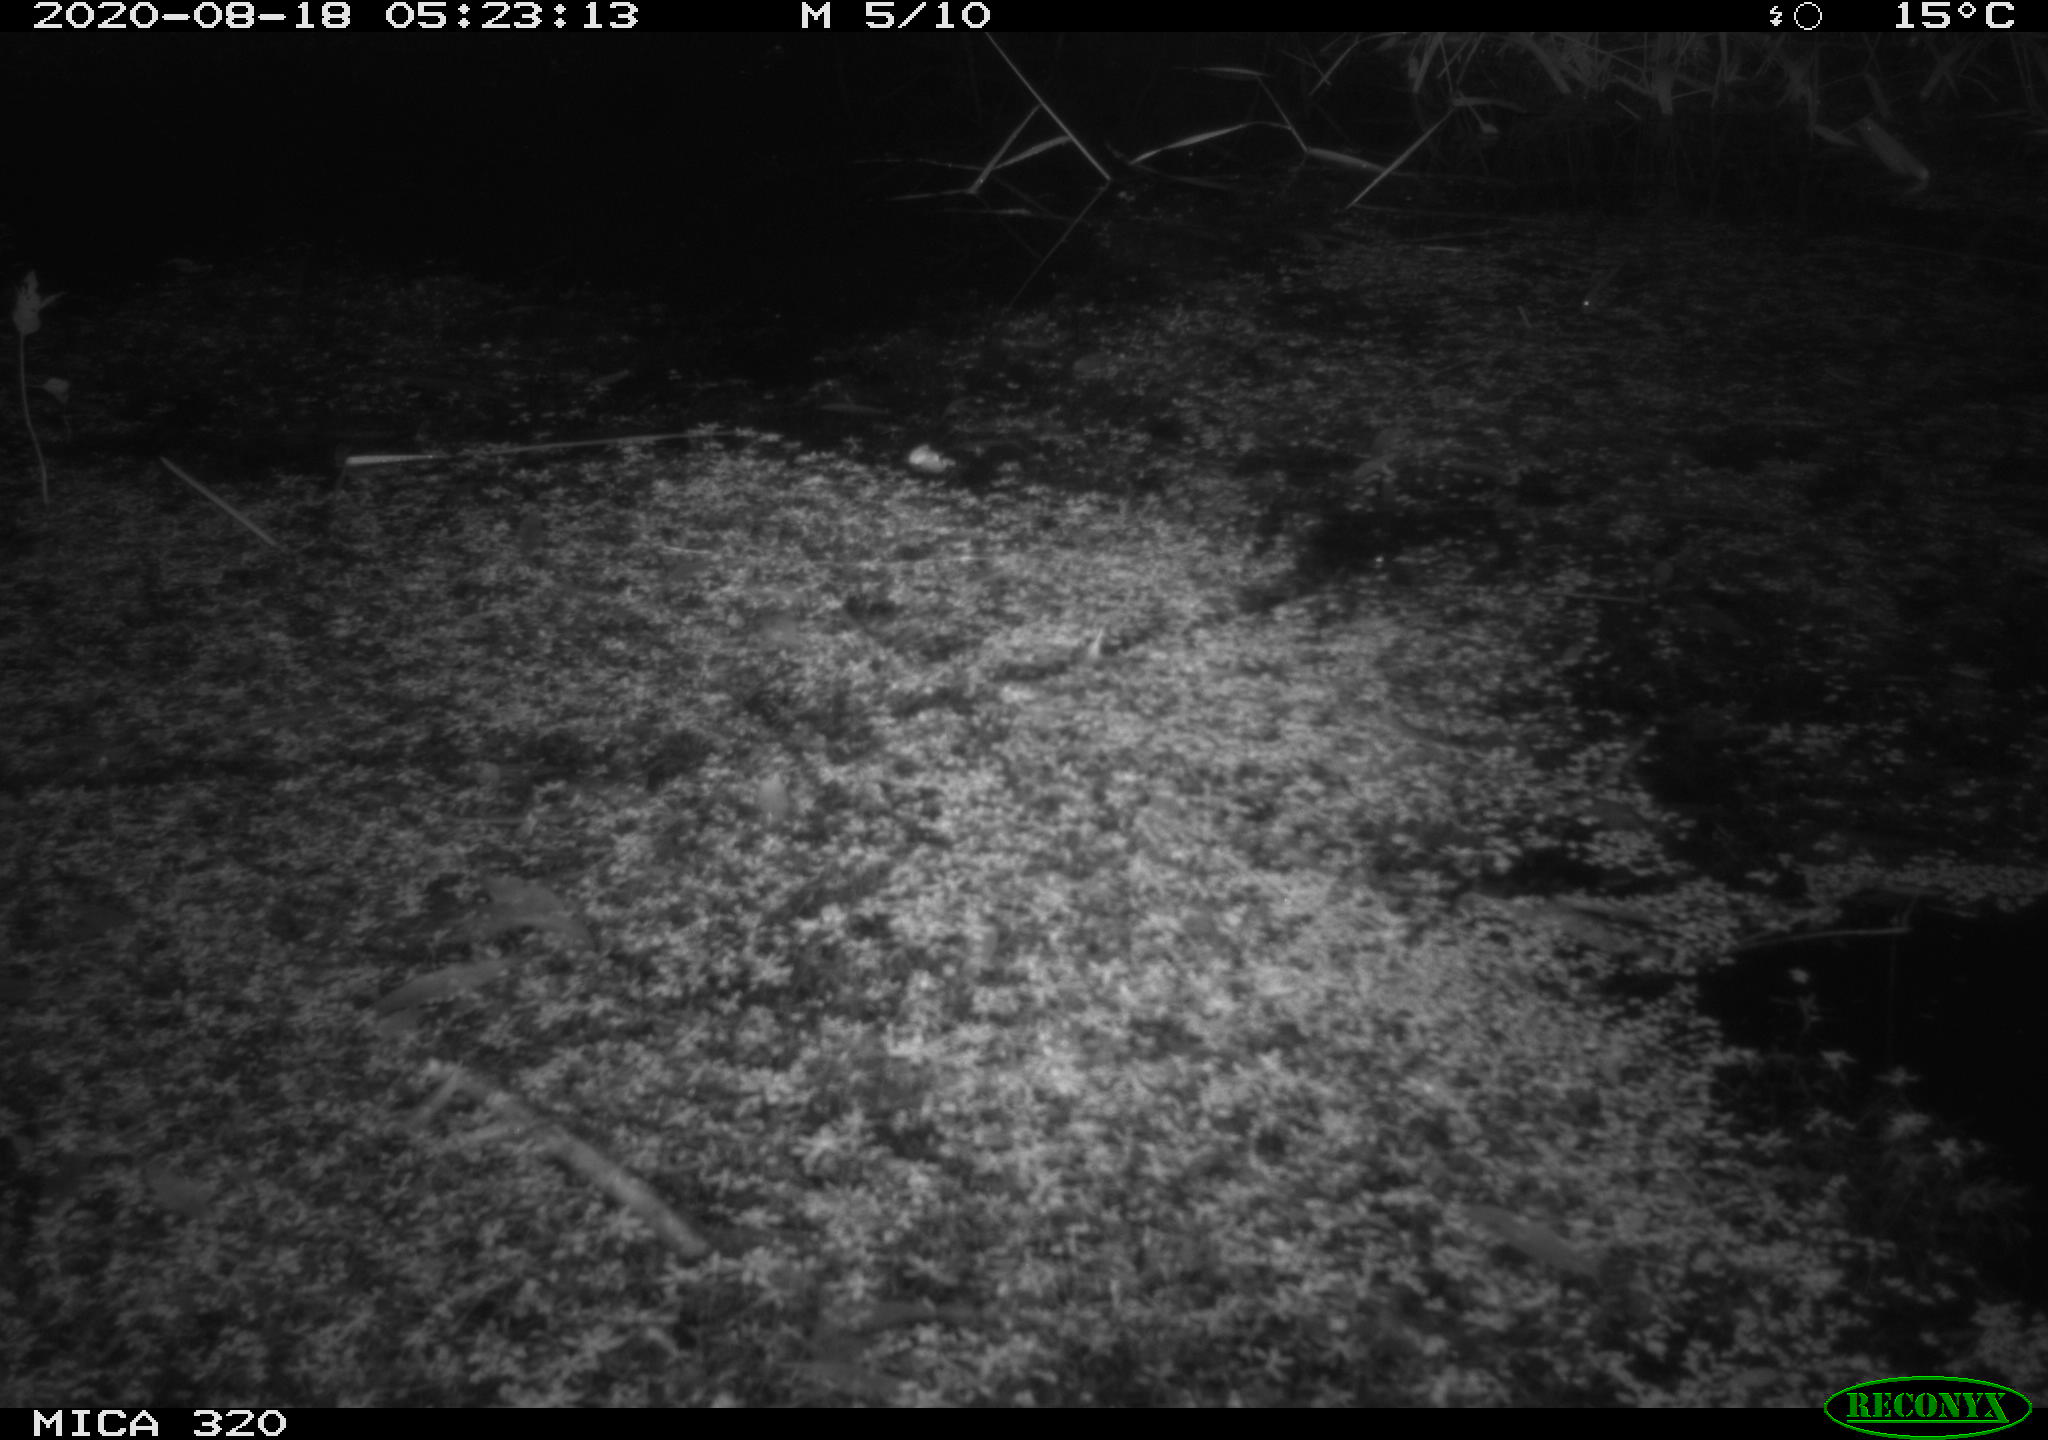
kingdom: Animalia
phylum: Chordata
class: Mammalia
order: Rodentia
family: Muridae
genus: Rattus
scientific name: Rattus norvegicus
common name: Brown rat
